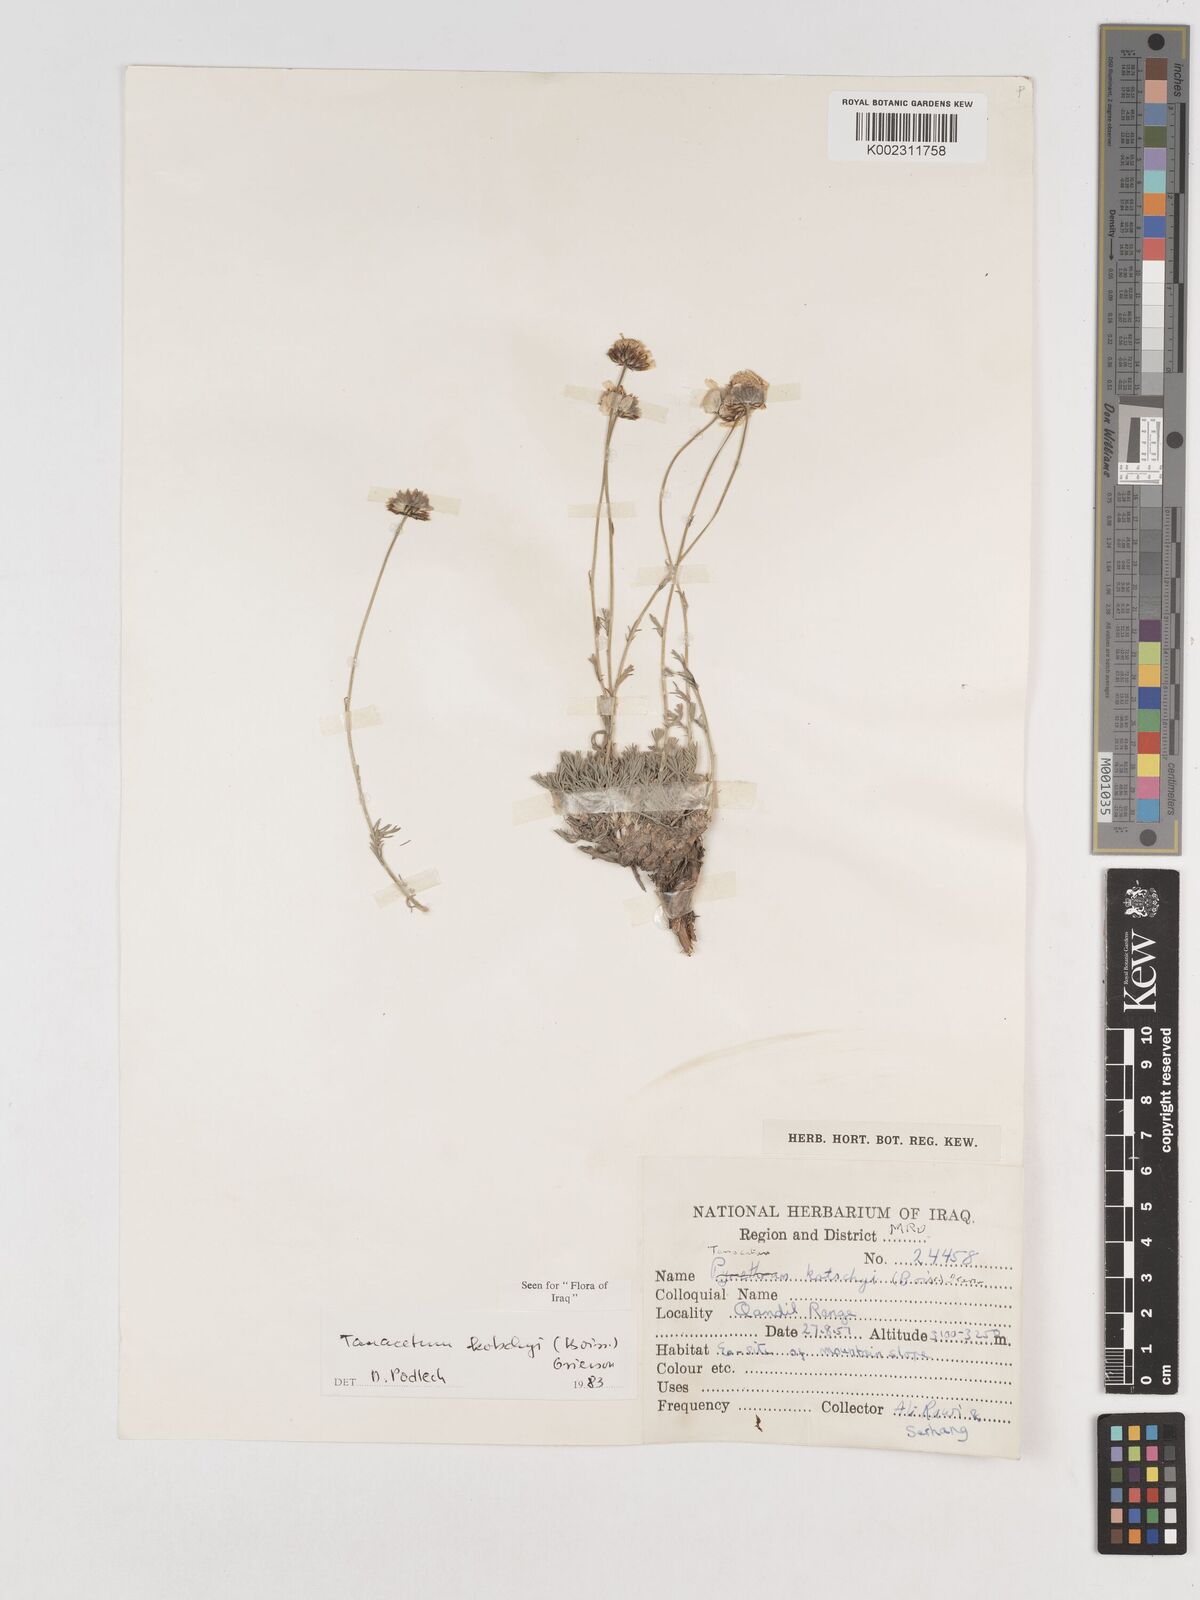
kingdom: Plantae
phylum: Tracheophyta
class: Magnoliopsida
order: Asterales
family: Asteraceae
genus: Tanacetum
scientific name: Tanacetum polycephalum
